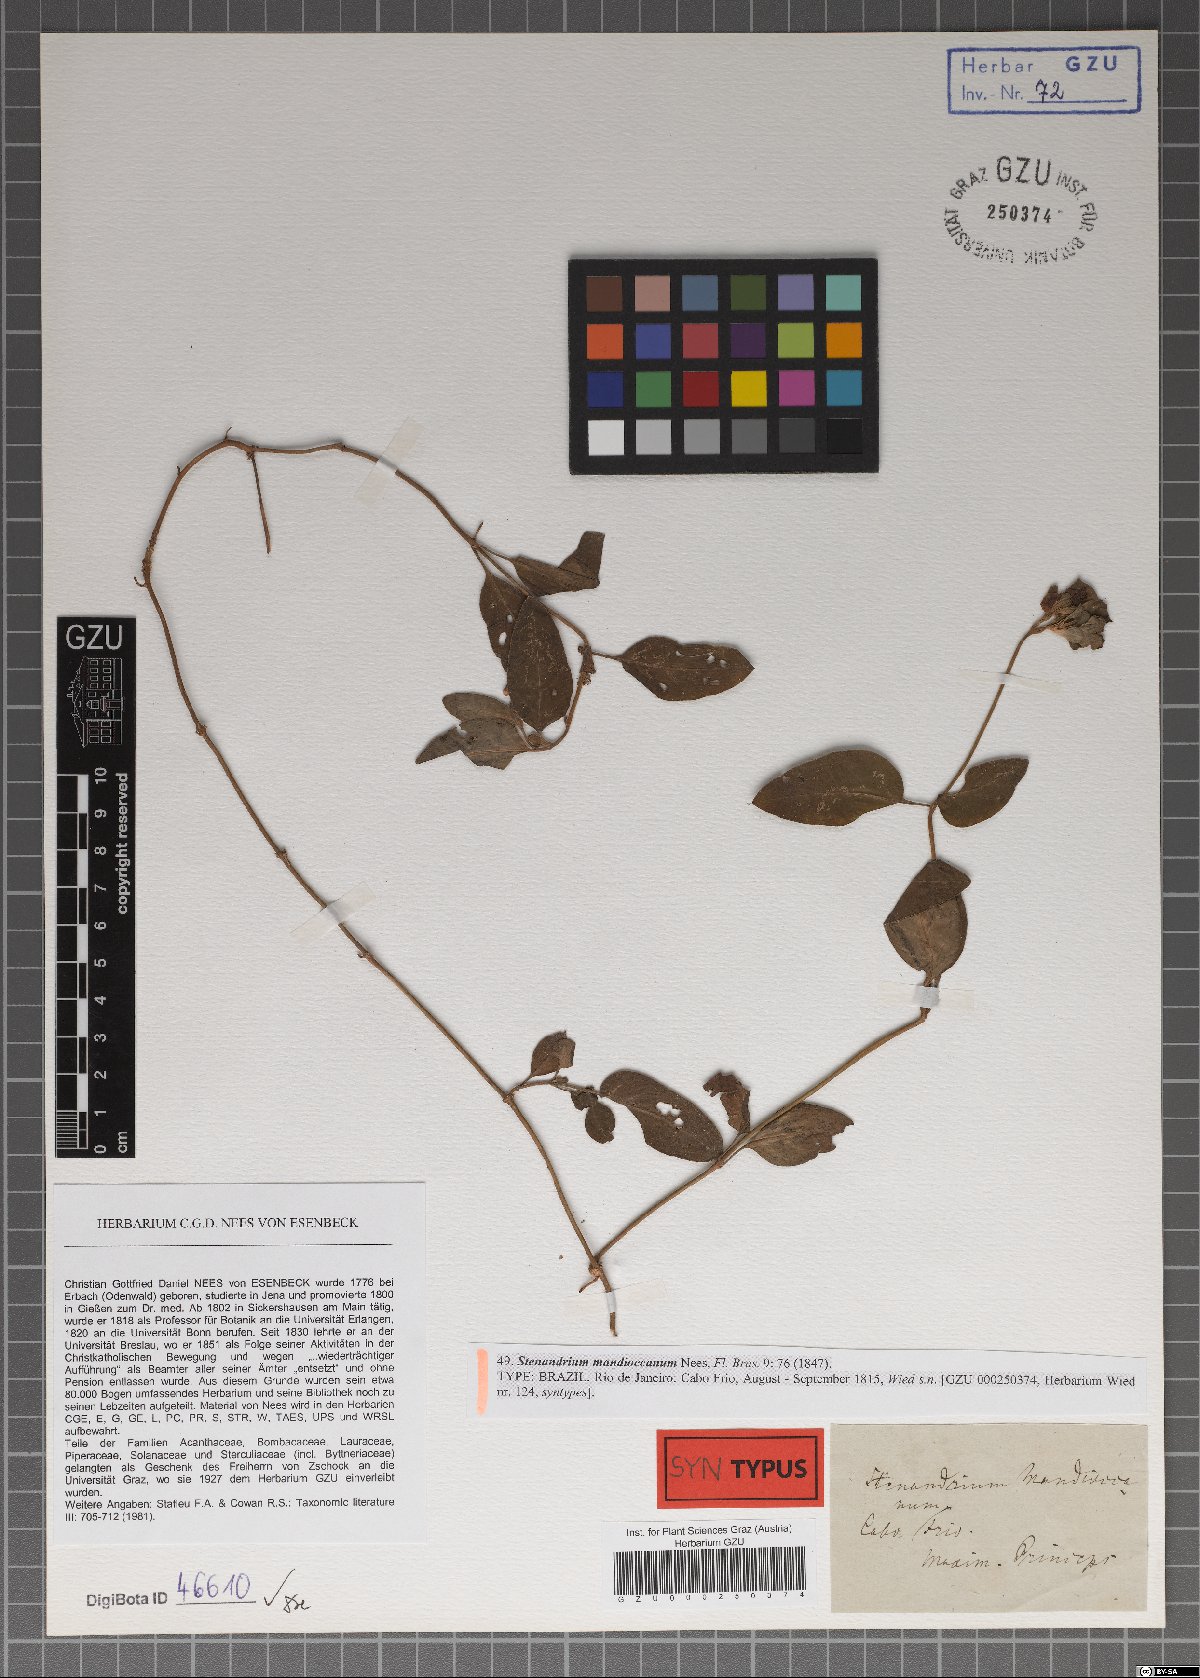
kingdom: Plantae
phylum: Tracheophyta
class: Magnoliopsida
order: Lamiales
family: Acanthaceae
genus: Stenandrium
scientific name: Stenandrium mandioccanum
